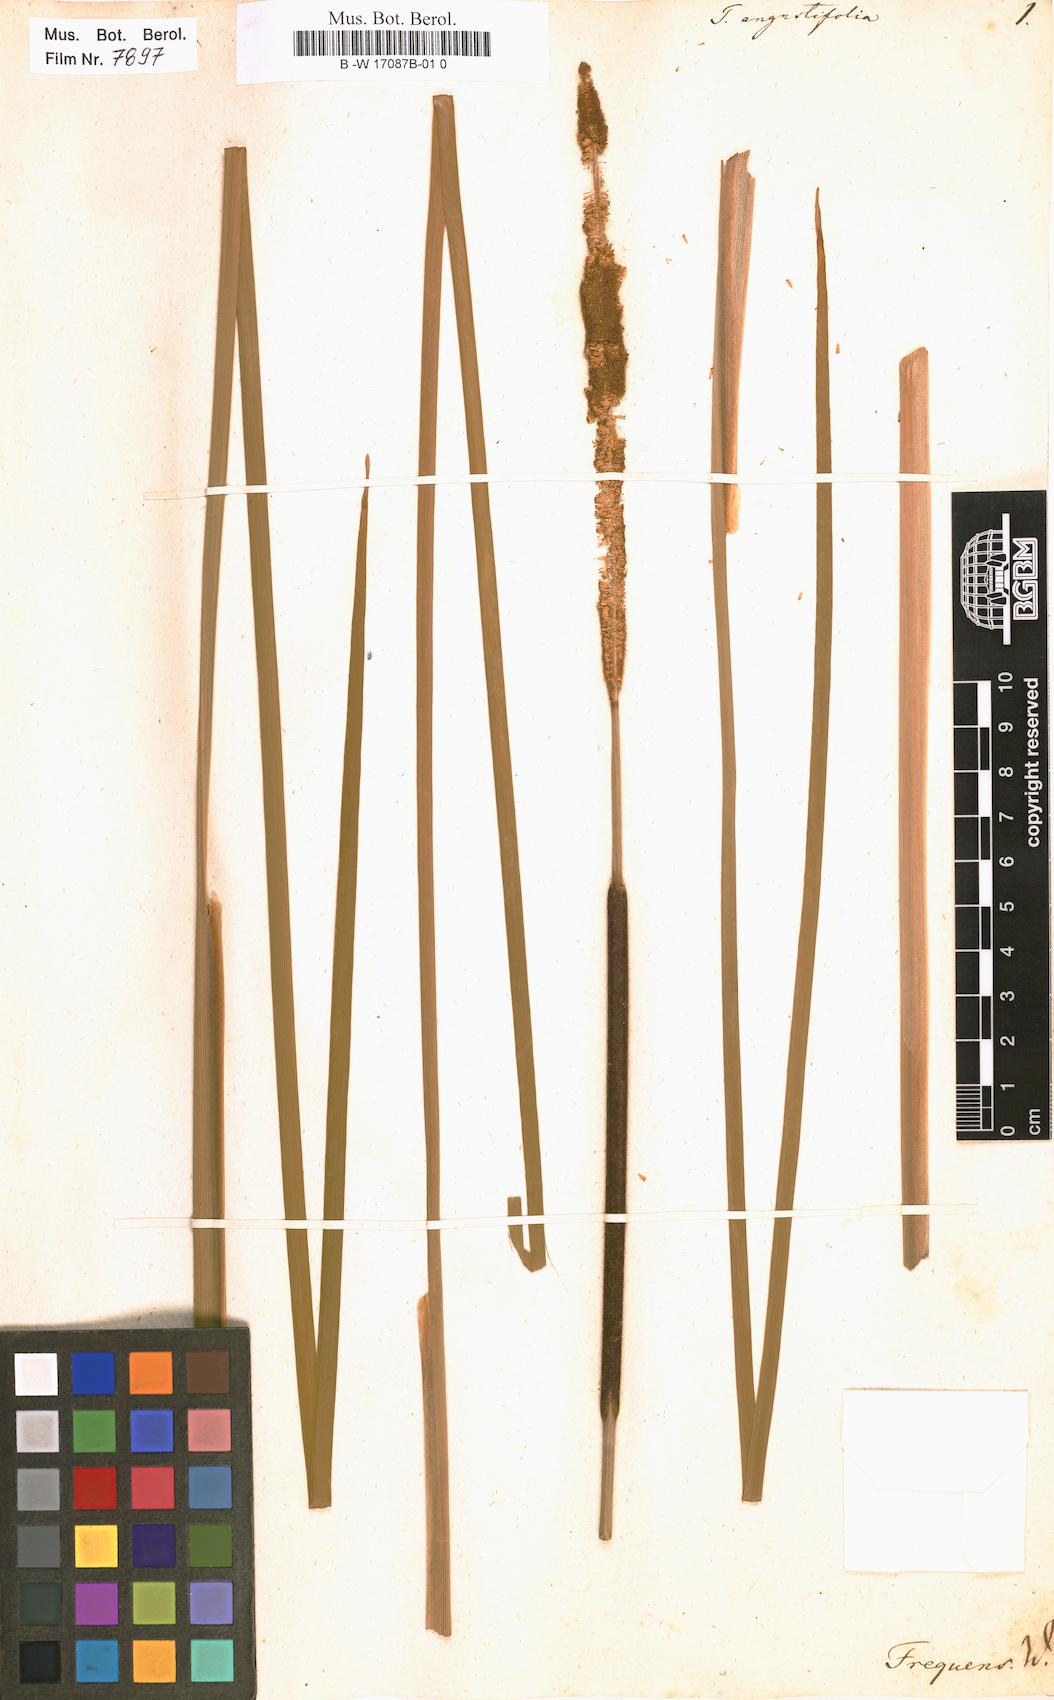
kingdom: Plantae
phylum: Tracheophyta
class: Liliopsida
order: Poales
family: Typhaceae
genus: Typha
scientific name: Typha angustifolia
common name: Lesser bulrush
